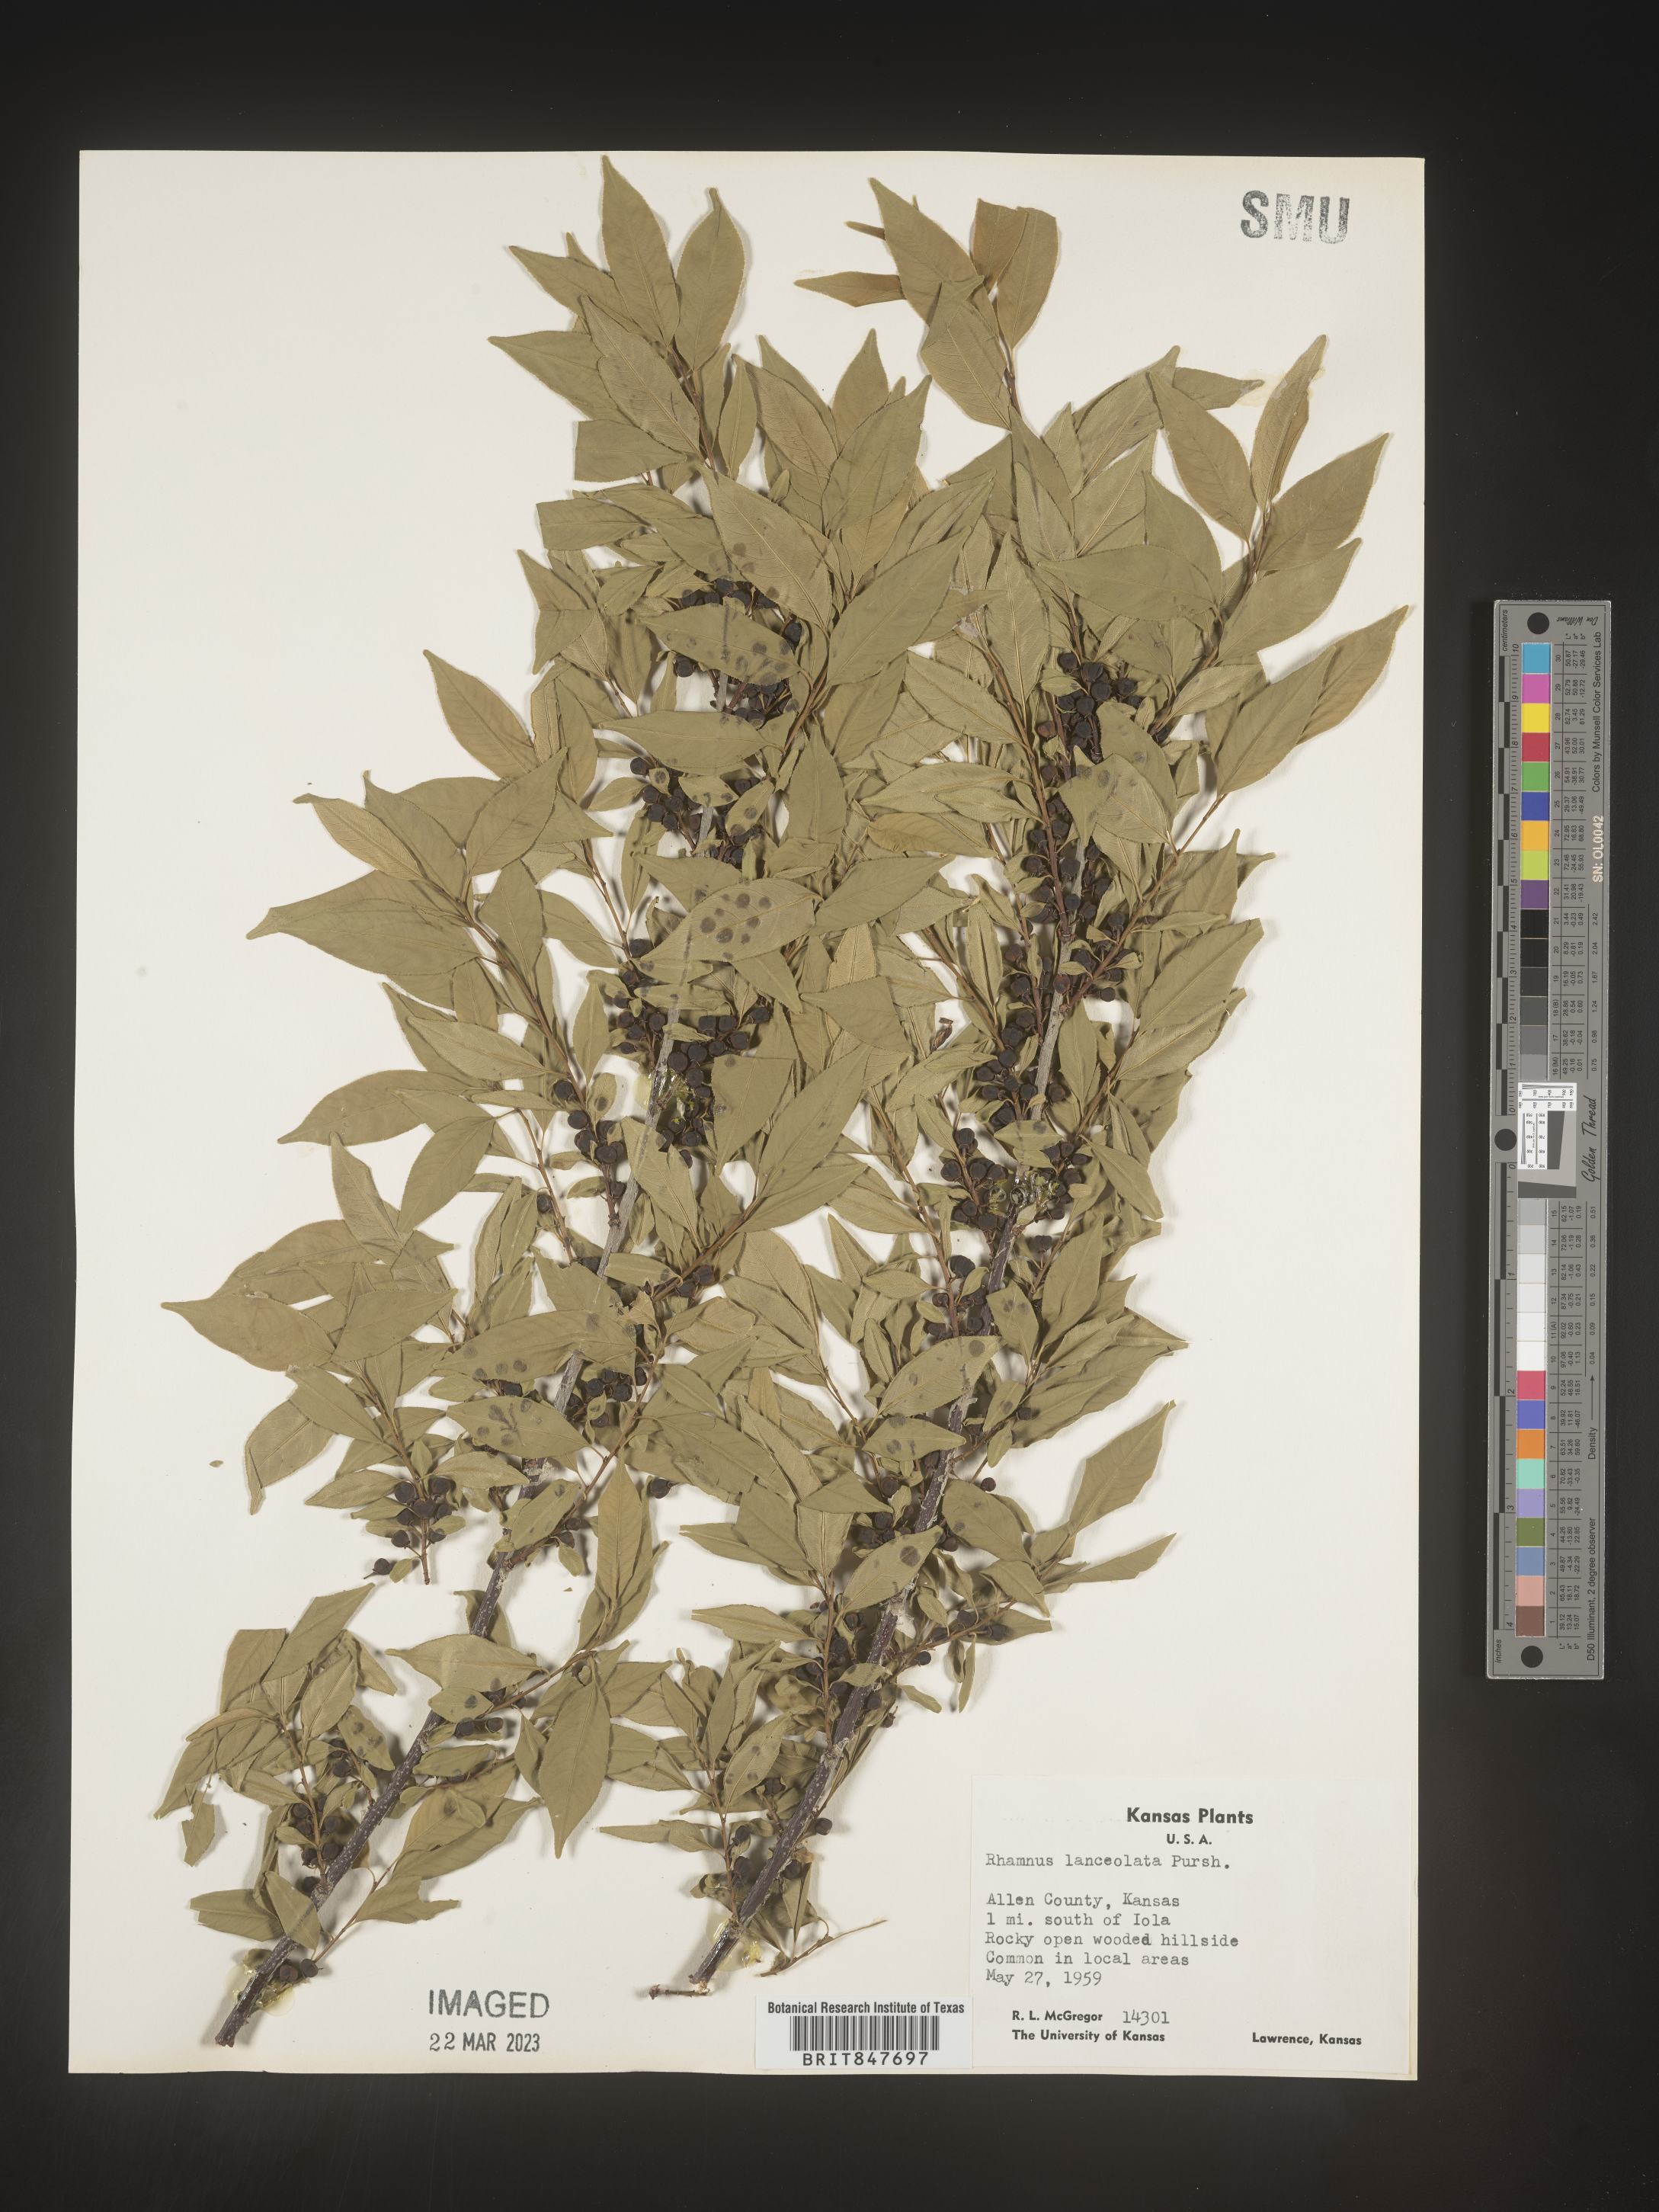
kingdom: Plantae
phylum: Tracheophyta
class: Magnoliopsida
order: Rosales
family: Rhamnaceae
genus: Endotropis
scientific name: Endotropis lanceolata
